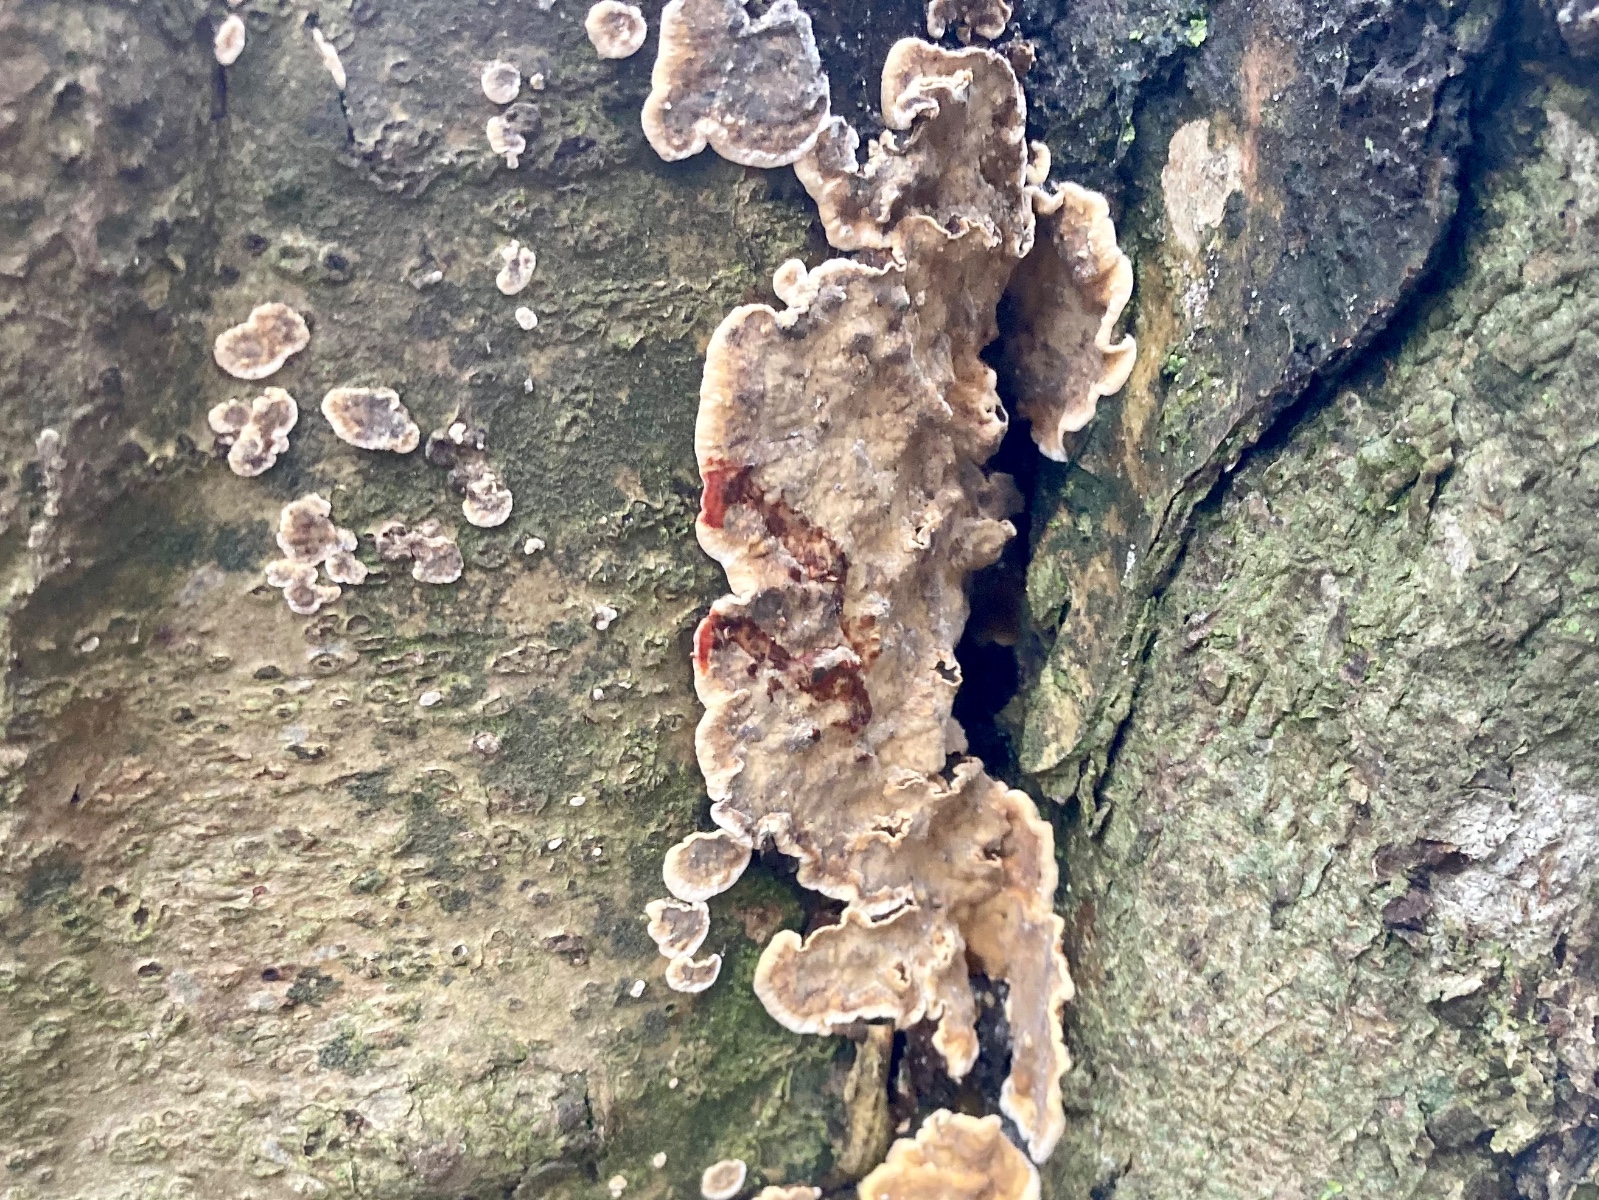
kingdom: Fungi
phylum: Basidiomycota
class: Agaricomycetes
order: Russulales
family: Stereaceae
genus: Stereum
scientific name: Stereum rugosum
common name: rynket lædersvamp
